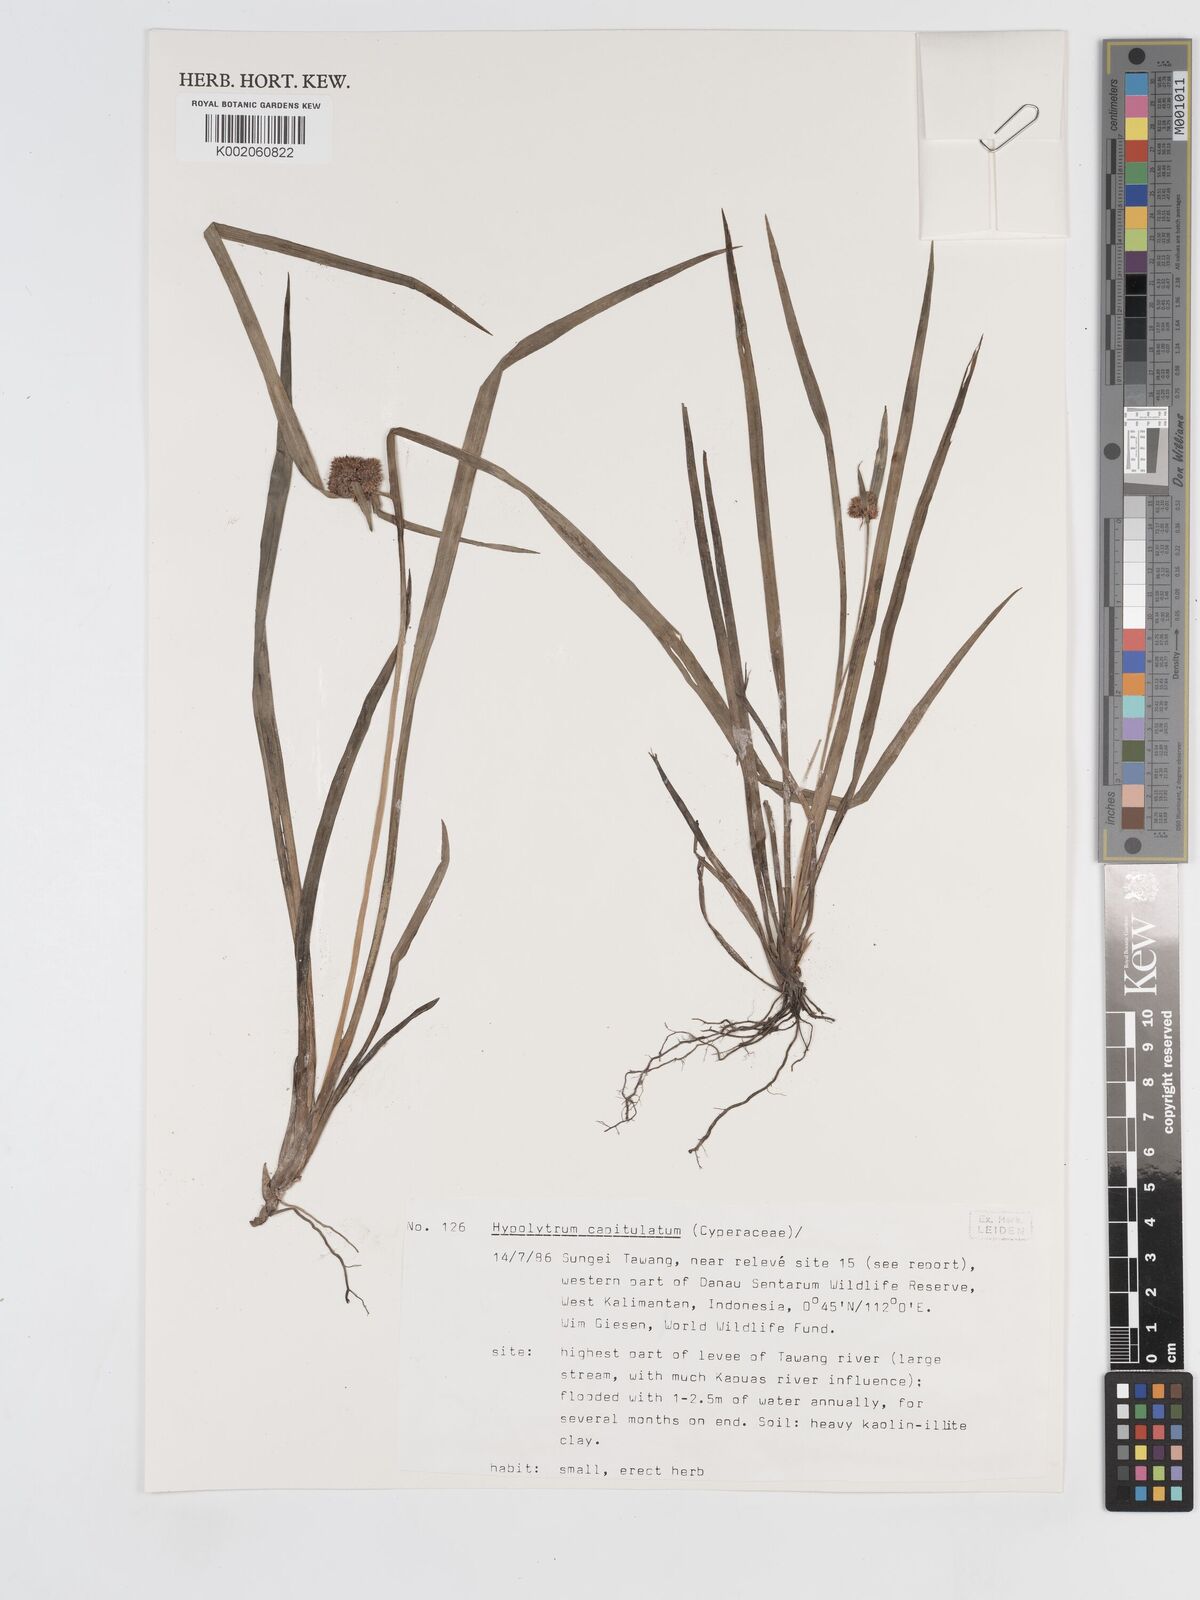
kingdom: Plantae
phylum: Tracheophyta
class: Liliopsida
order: Poales
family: Cyperaceae
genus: Hypolytrum
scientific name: Hypolytrum capitulatum
